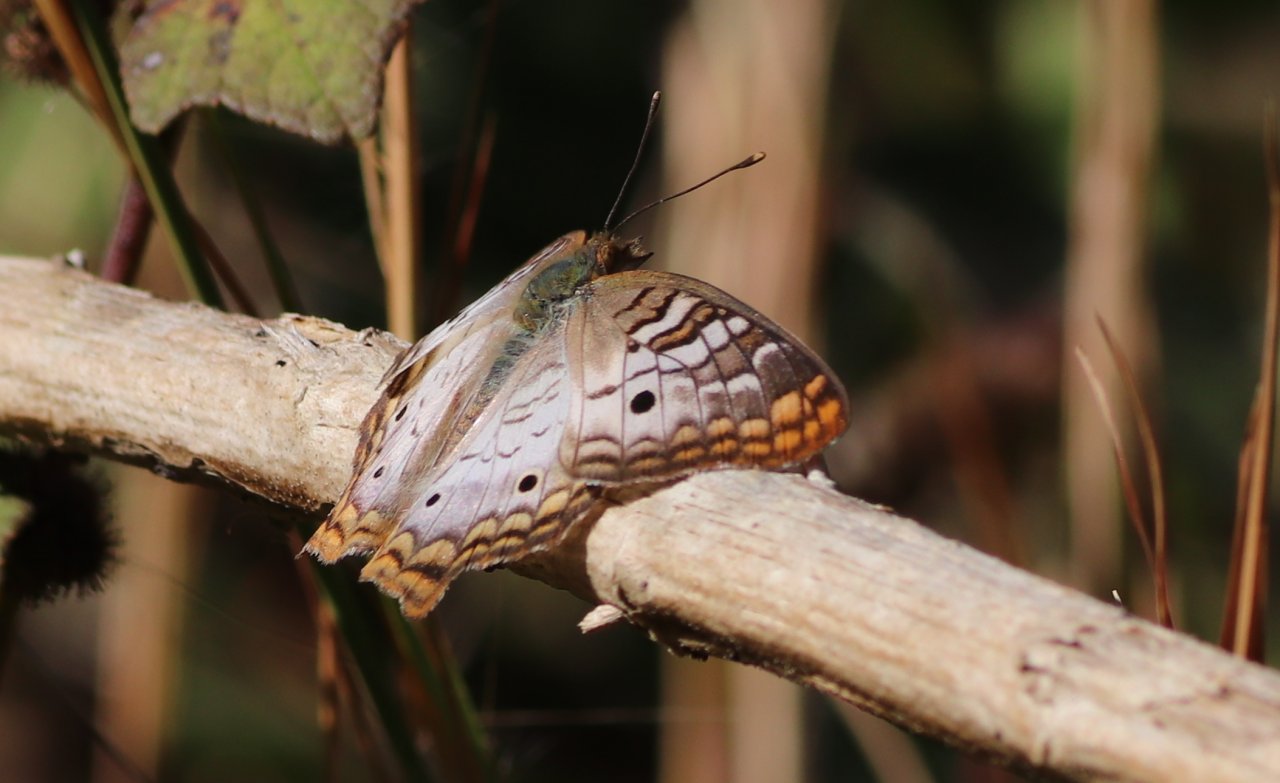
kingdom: Animalia
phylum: Arthropoda
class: Insecta
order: Lepidoptera
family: Nymphalidae
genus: Anartia
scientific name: Anartia jatrophae
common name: White Peacock
